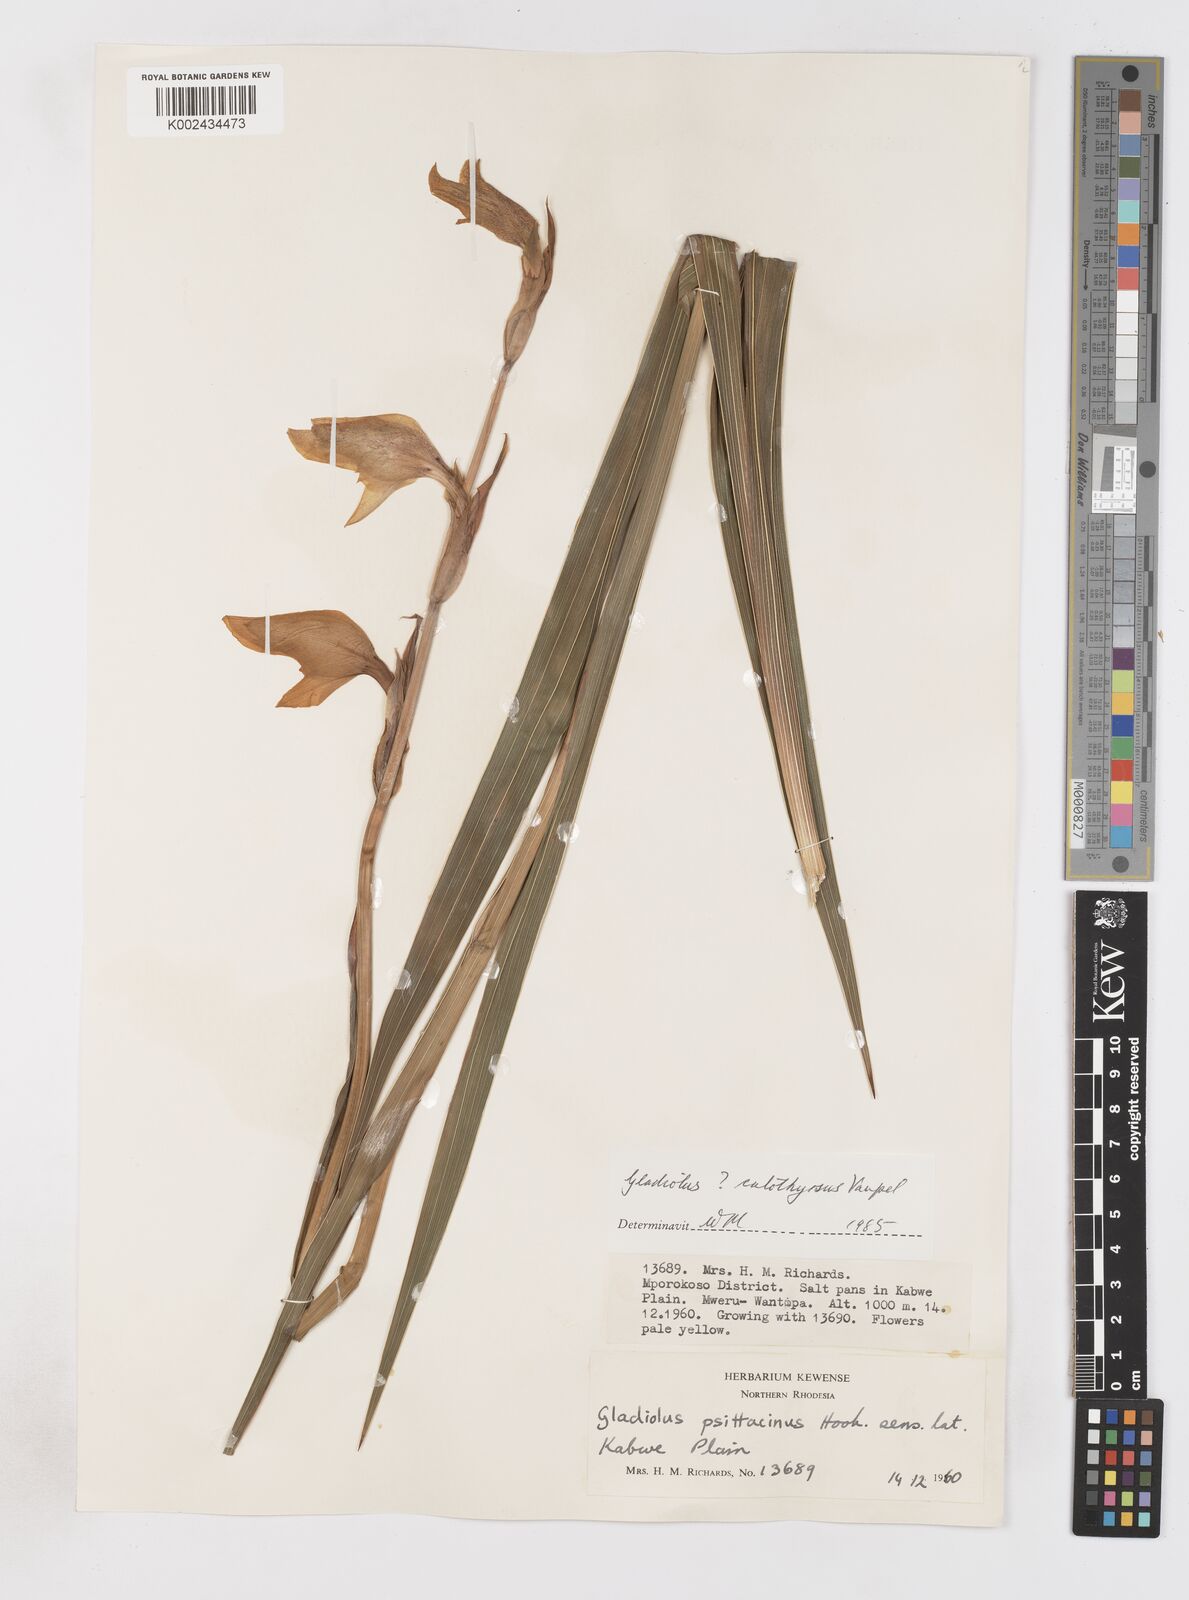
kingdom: Plantae
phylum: Tracheophyta
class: Liliopsida
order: Asparagales
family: Iridaceae
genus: Gladiolus
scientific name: Gladiolus dalenii
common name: Cornflag
